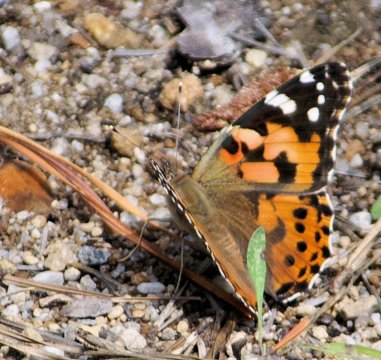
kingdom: Animalia
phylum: Arthropoda
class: Insecta
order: Lepidoptera
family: Nymphalidae
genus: Vanessa
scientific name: Vanessa cardui
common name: Painted Lady
